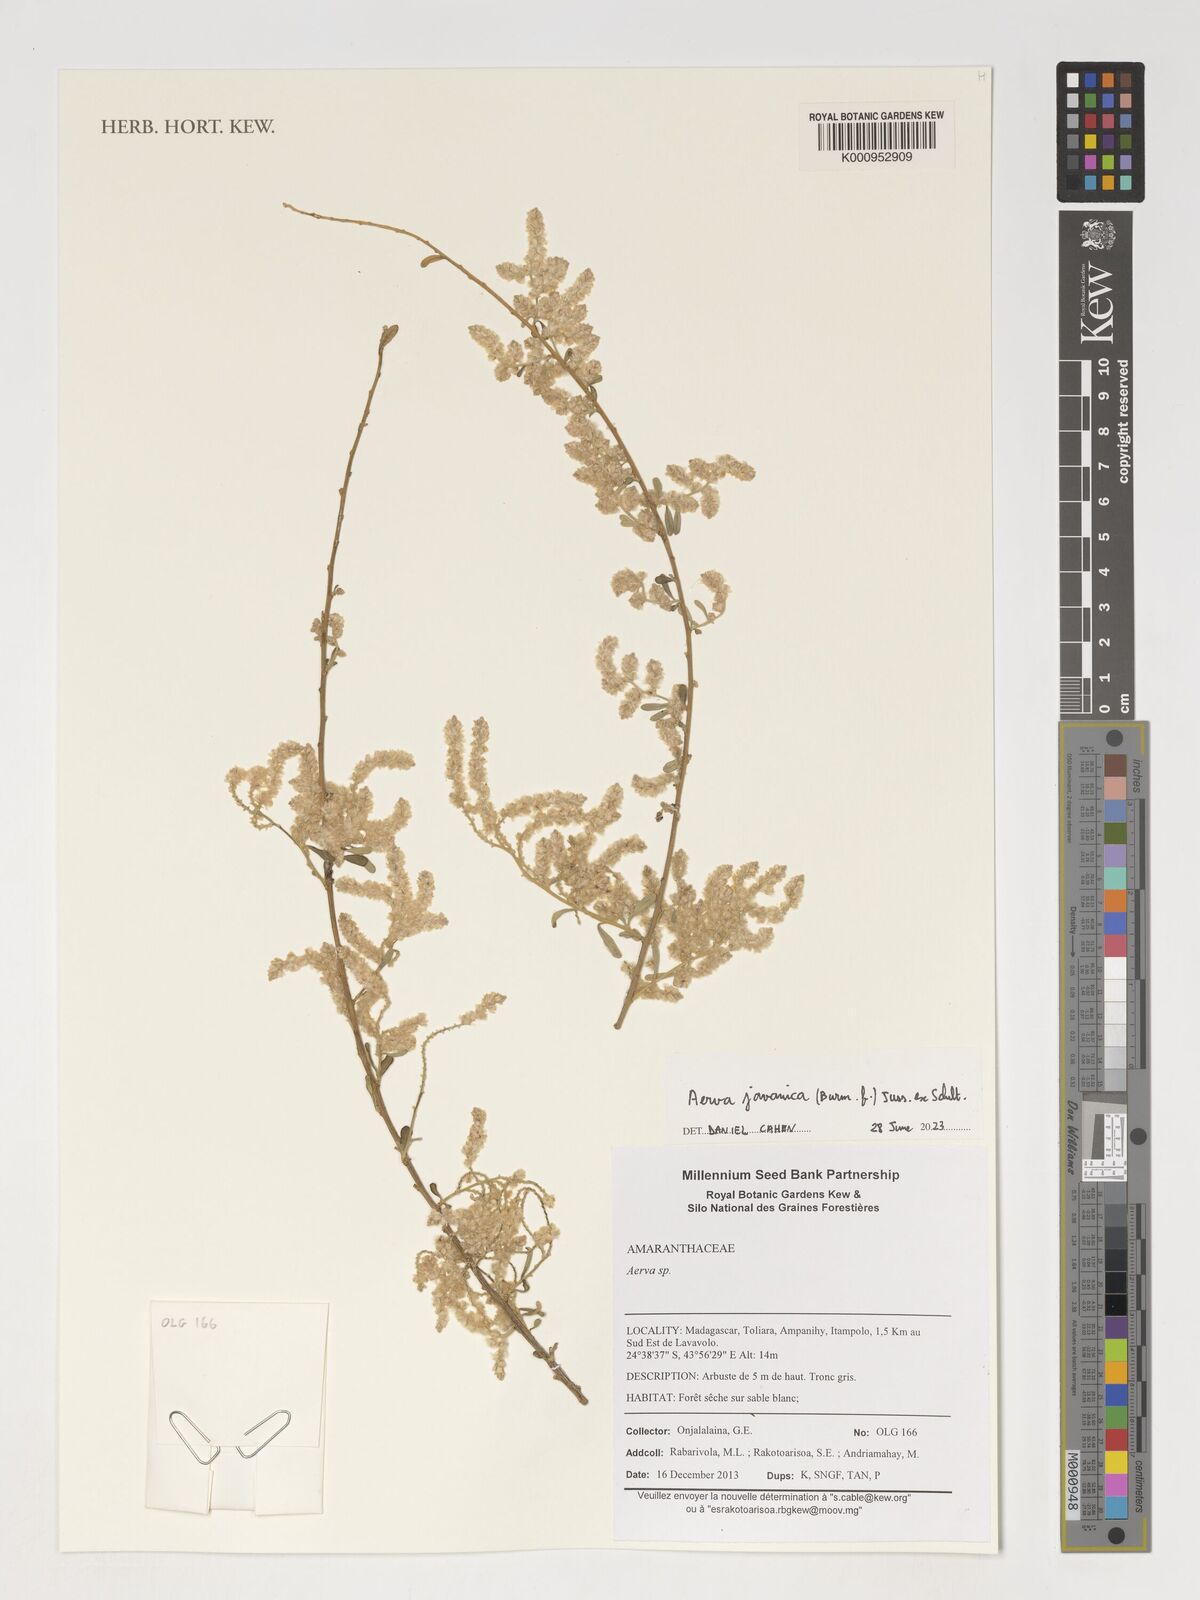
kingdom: Plantae
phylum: Tracheophyta
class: Magnoliopsida
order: Caryophyllales
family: Amaranthaceae
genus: Aerva
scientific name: Aerva
